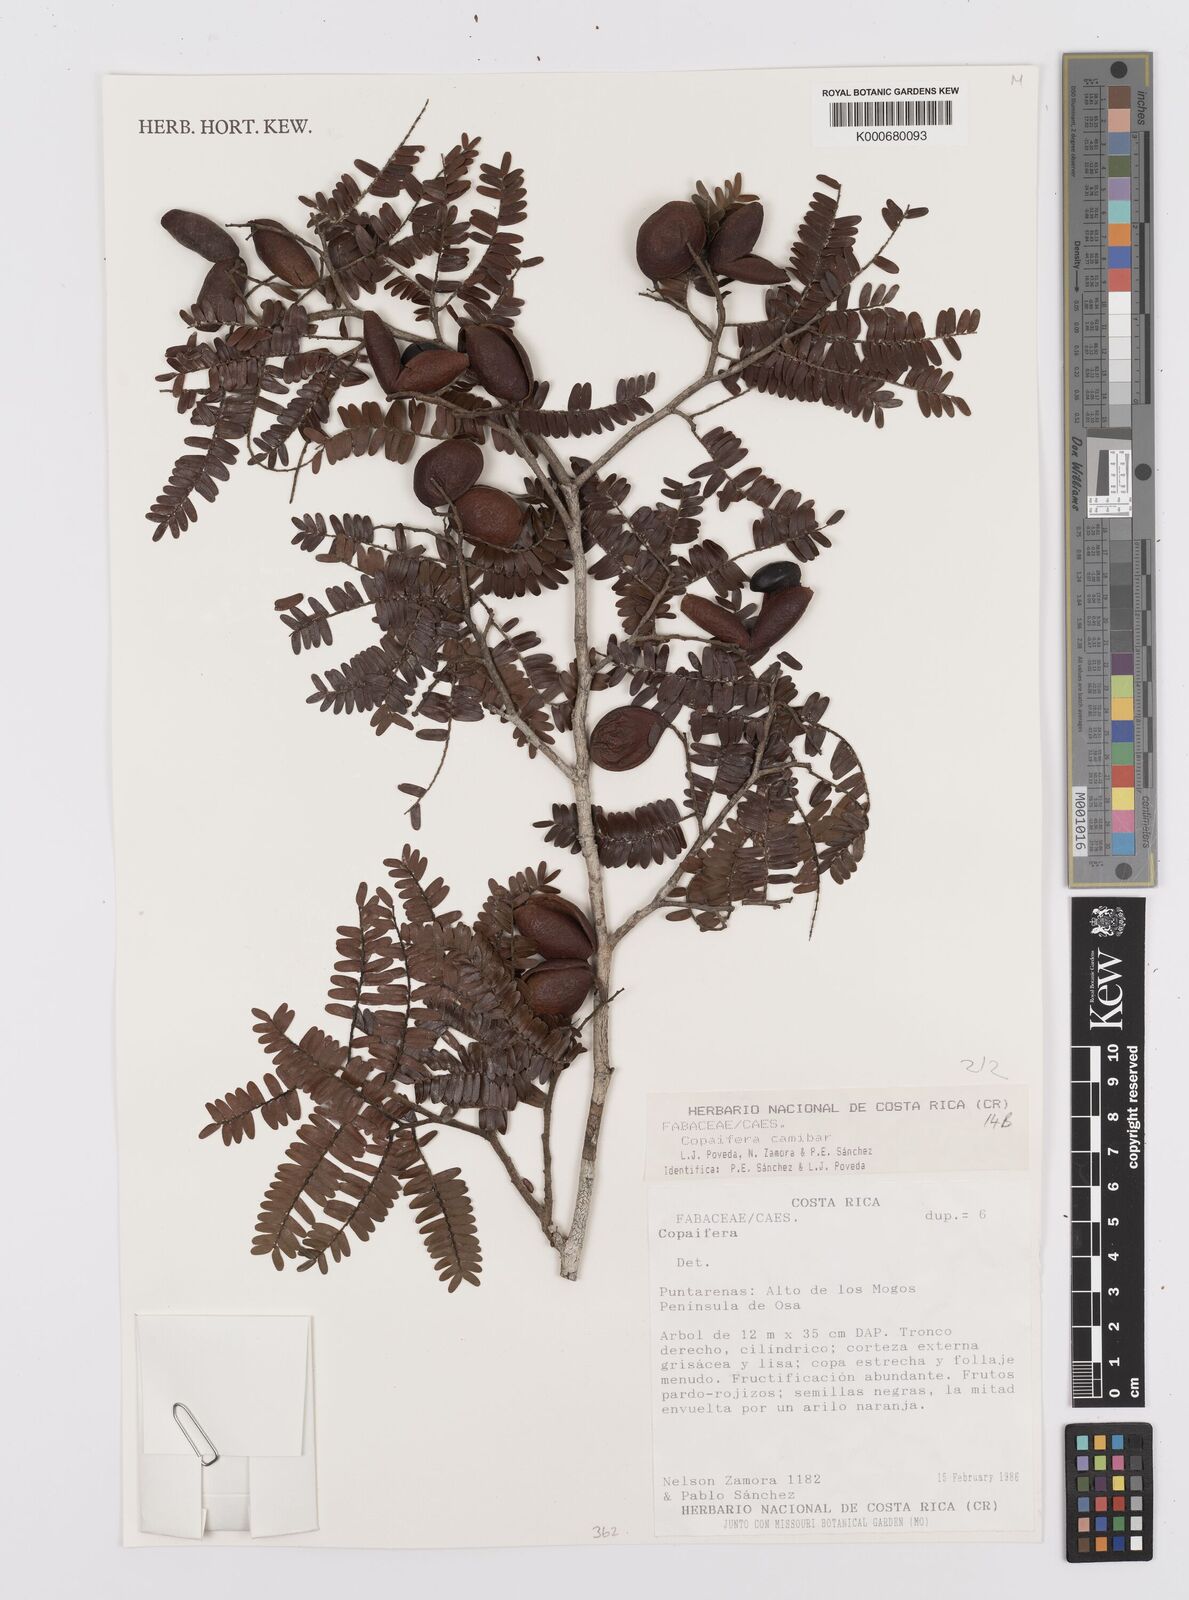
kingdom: Plantae
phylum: Tracheophyta
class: Magnoliopsida
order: Fabales
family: Fabaceae
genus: Copaifera
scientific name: Copaifera
